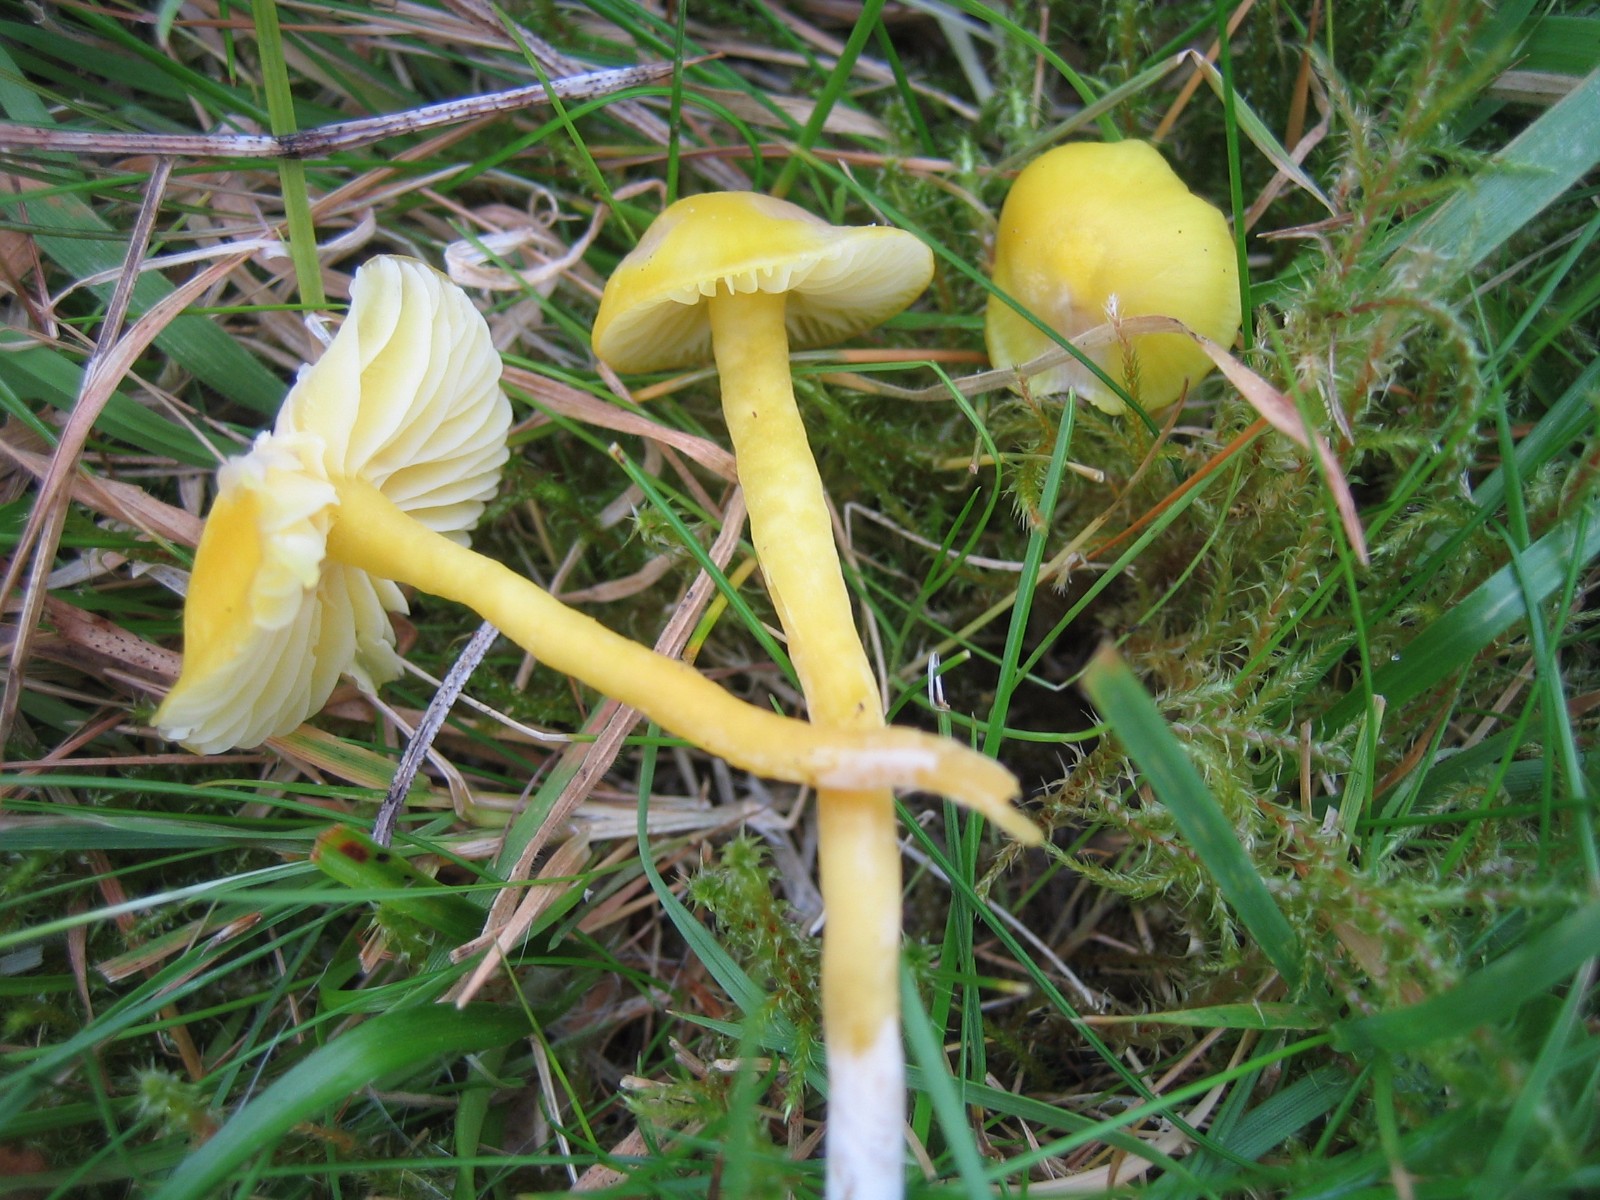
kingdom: Fungi
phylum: Basidiomycota
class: Agaricomycetes
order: Agaricales
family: Hygrophoraceae
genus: Hygrocybe
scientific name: Hygrocybe chlorophana
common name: gul vokshat
